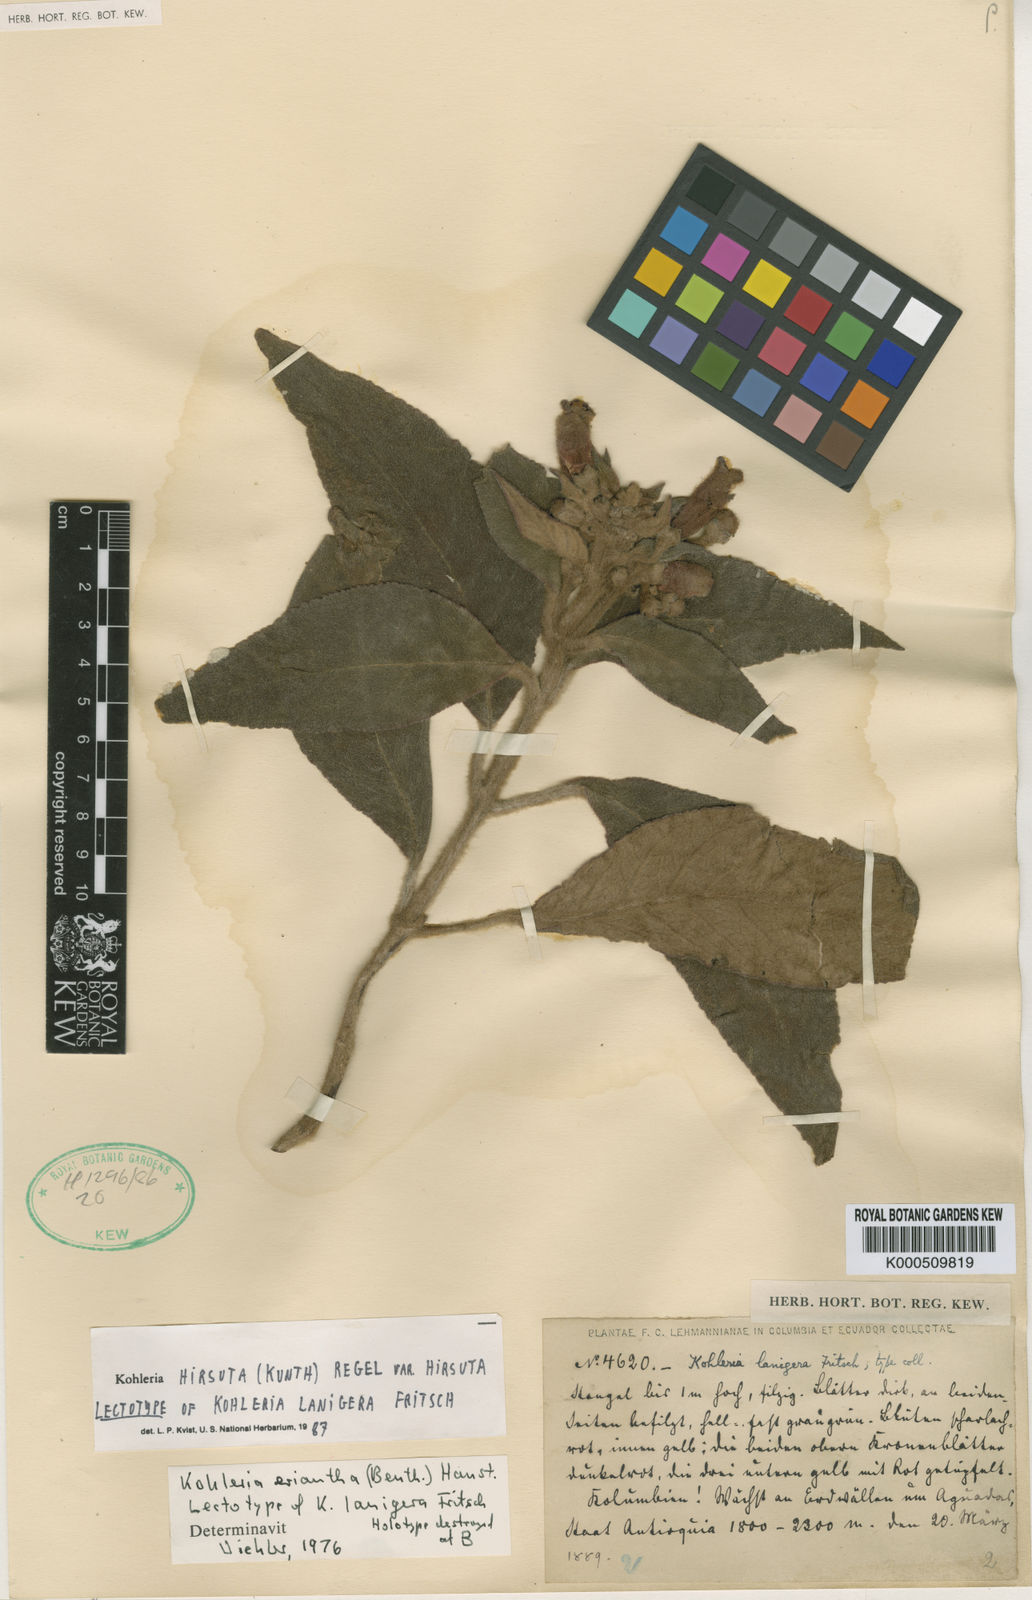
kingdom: Plantae
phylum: Tracheophyta
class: Magnoliopsida
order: Lamiales
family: Gesneriaceae
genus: Kohleria
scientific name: Kohleria hirsuta
